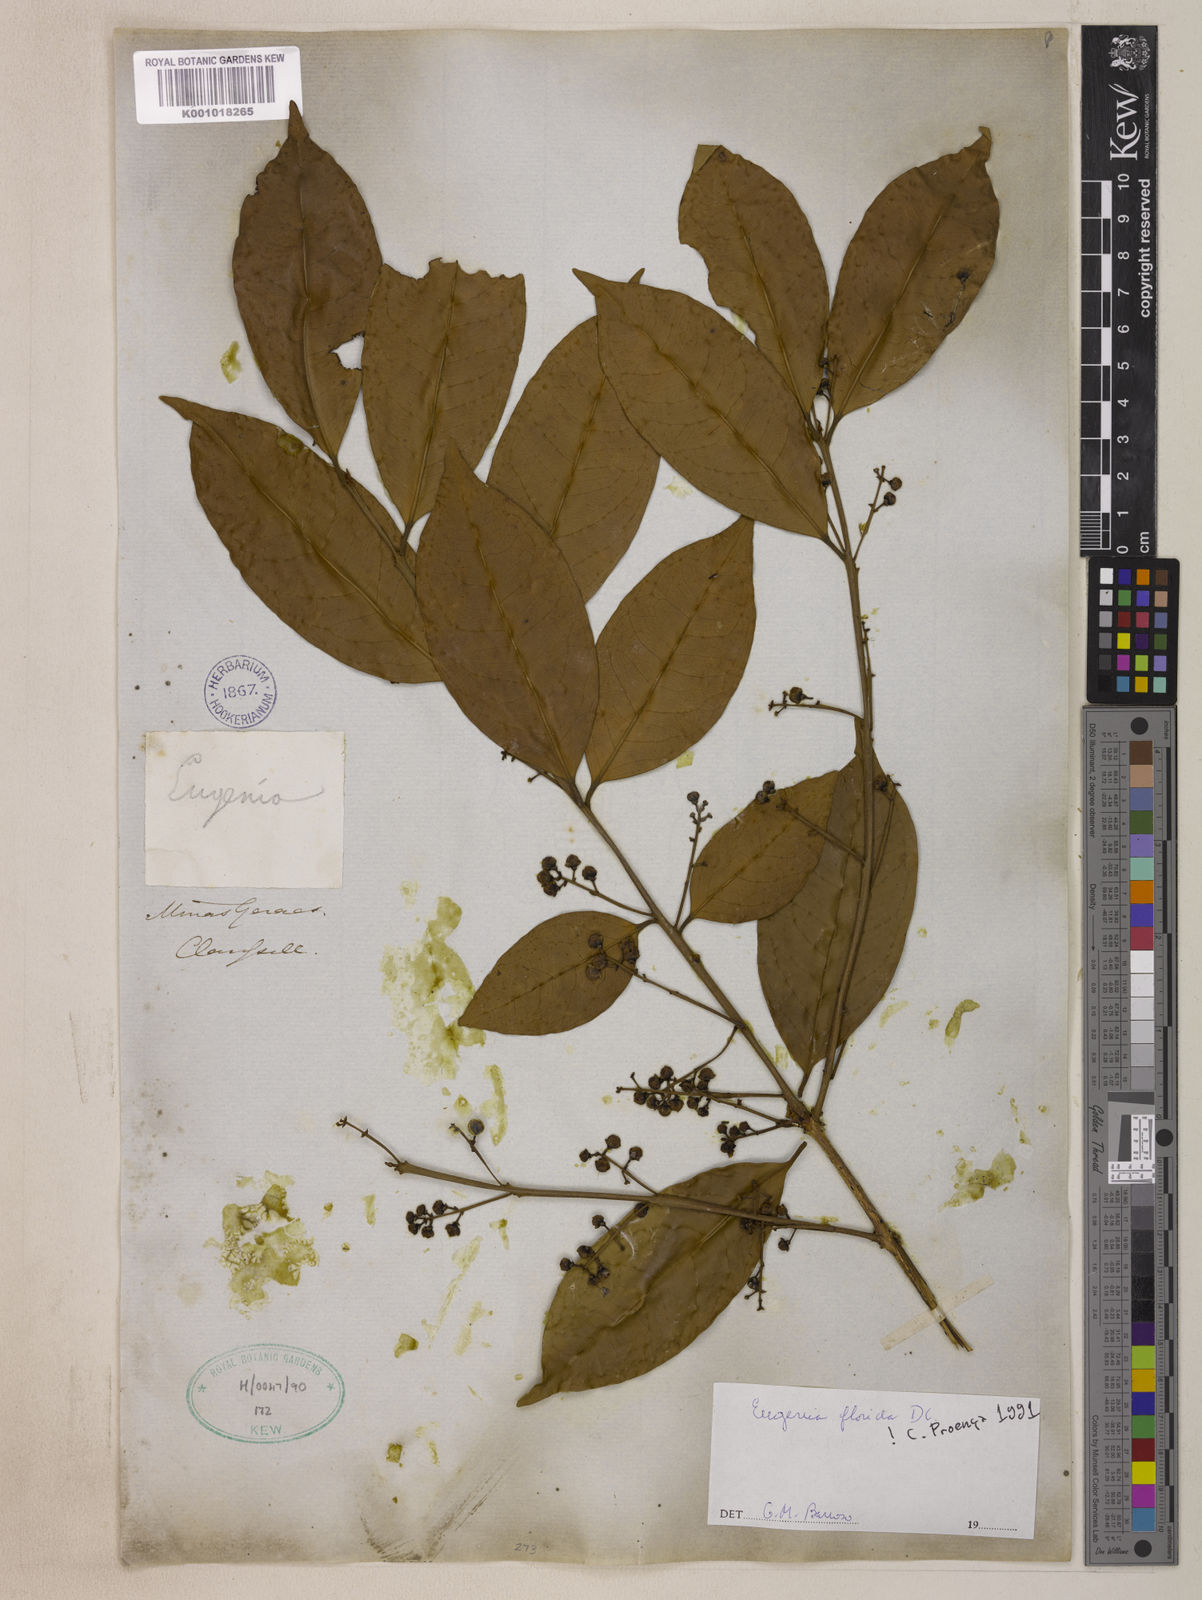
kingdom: Plantae
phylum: Tracheophyta
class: Magnoliopsida
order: Myrtales
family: Myrtaceae
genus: Eugenia
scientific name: Eugenia florida
